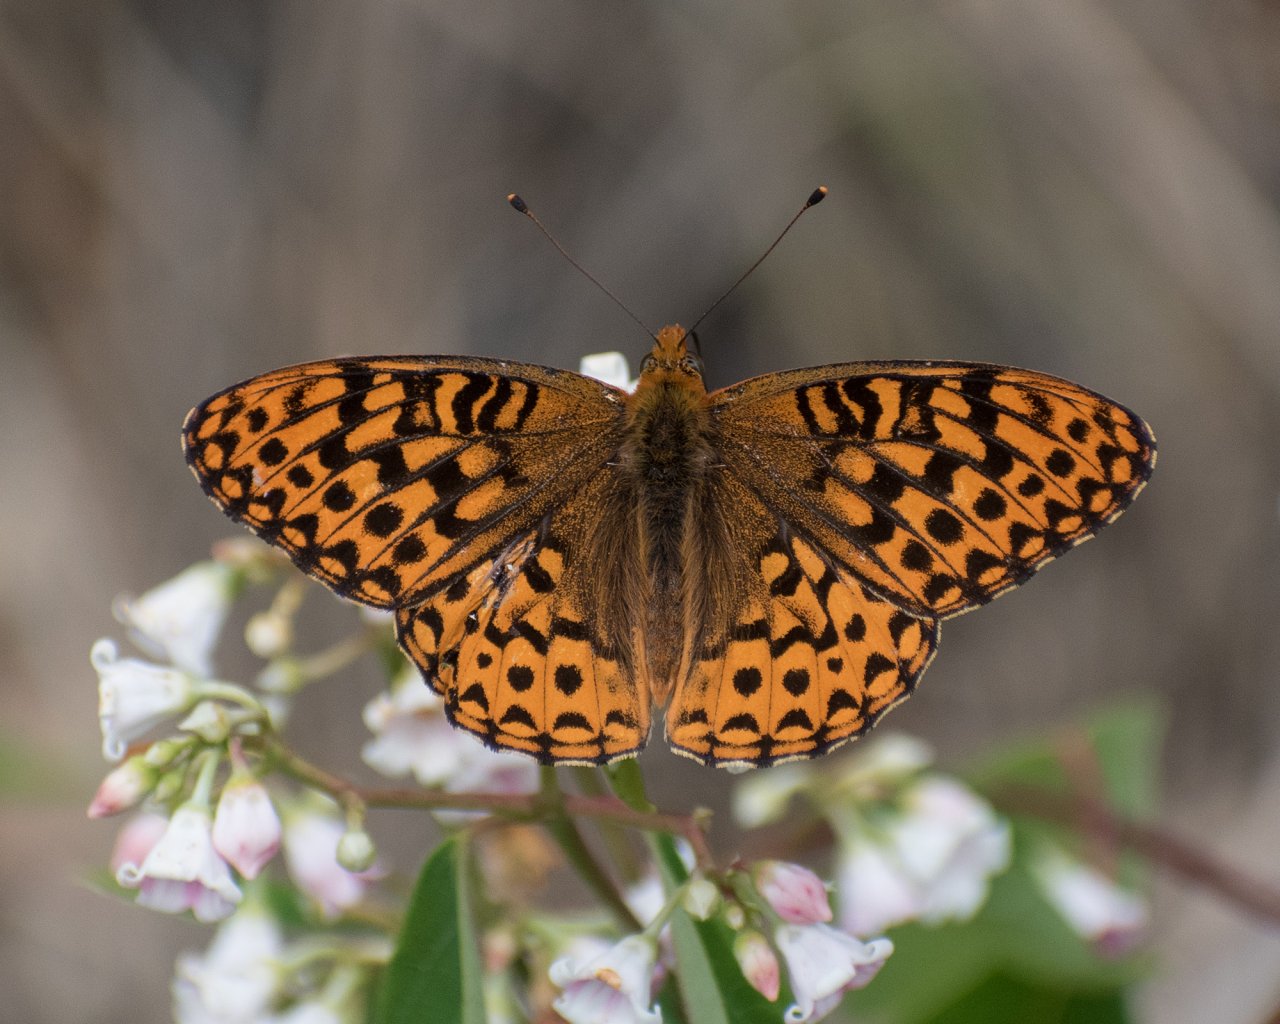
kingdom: Animalia
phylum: Arthropoda
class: Insecta
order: Lepidoptera
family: Nymphalidae
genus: Speyeria
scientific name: Speyeria hydaspe
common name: Hydaspe Fritillary
